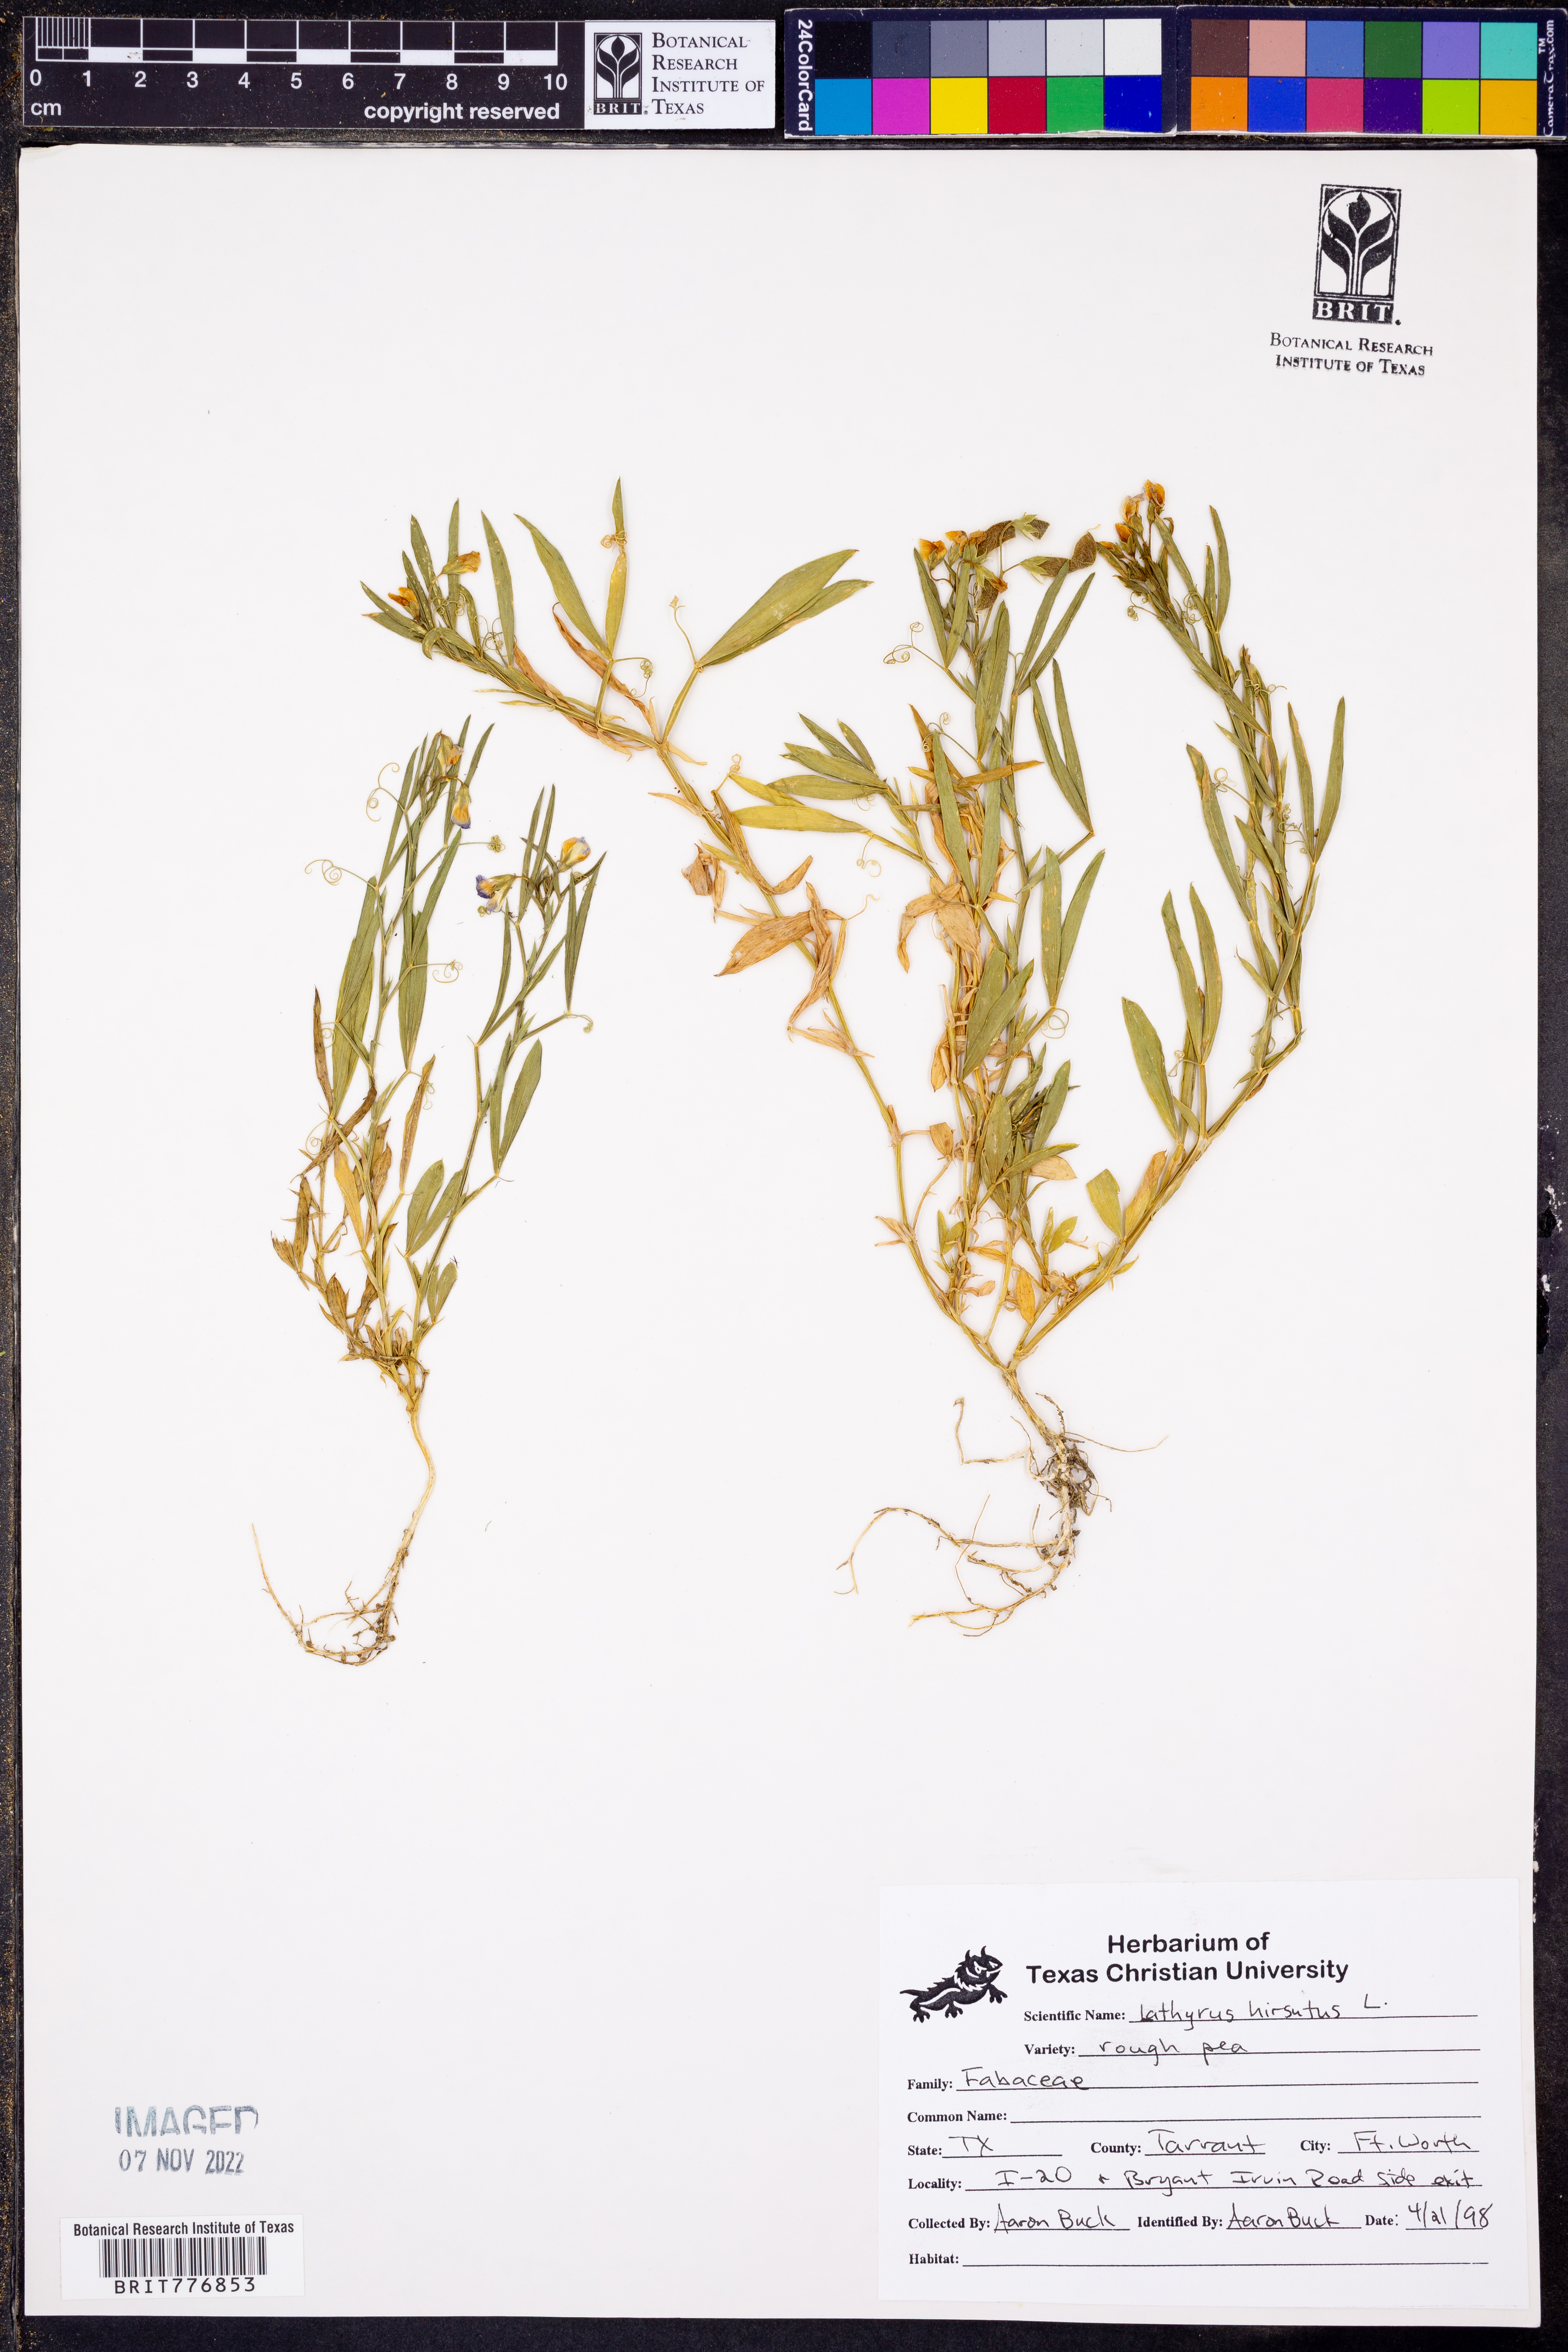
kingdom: Plantae
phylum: Tracheophyta
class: Magnoliopsida
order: Fabales
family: Fabaceae
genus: Lathyrus
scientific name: Lathyrus hirsutus
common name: Hairy vetchling
